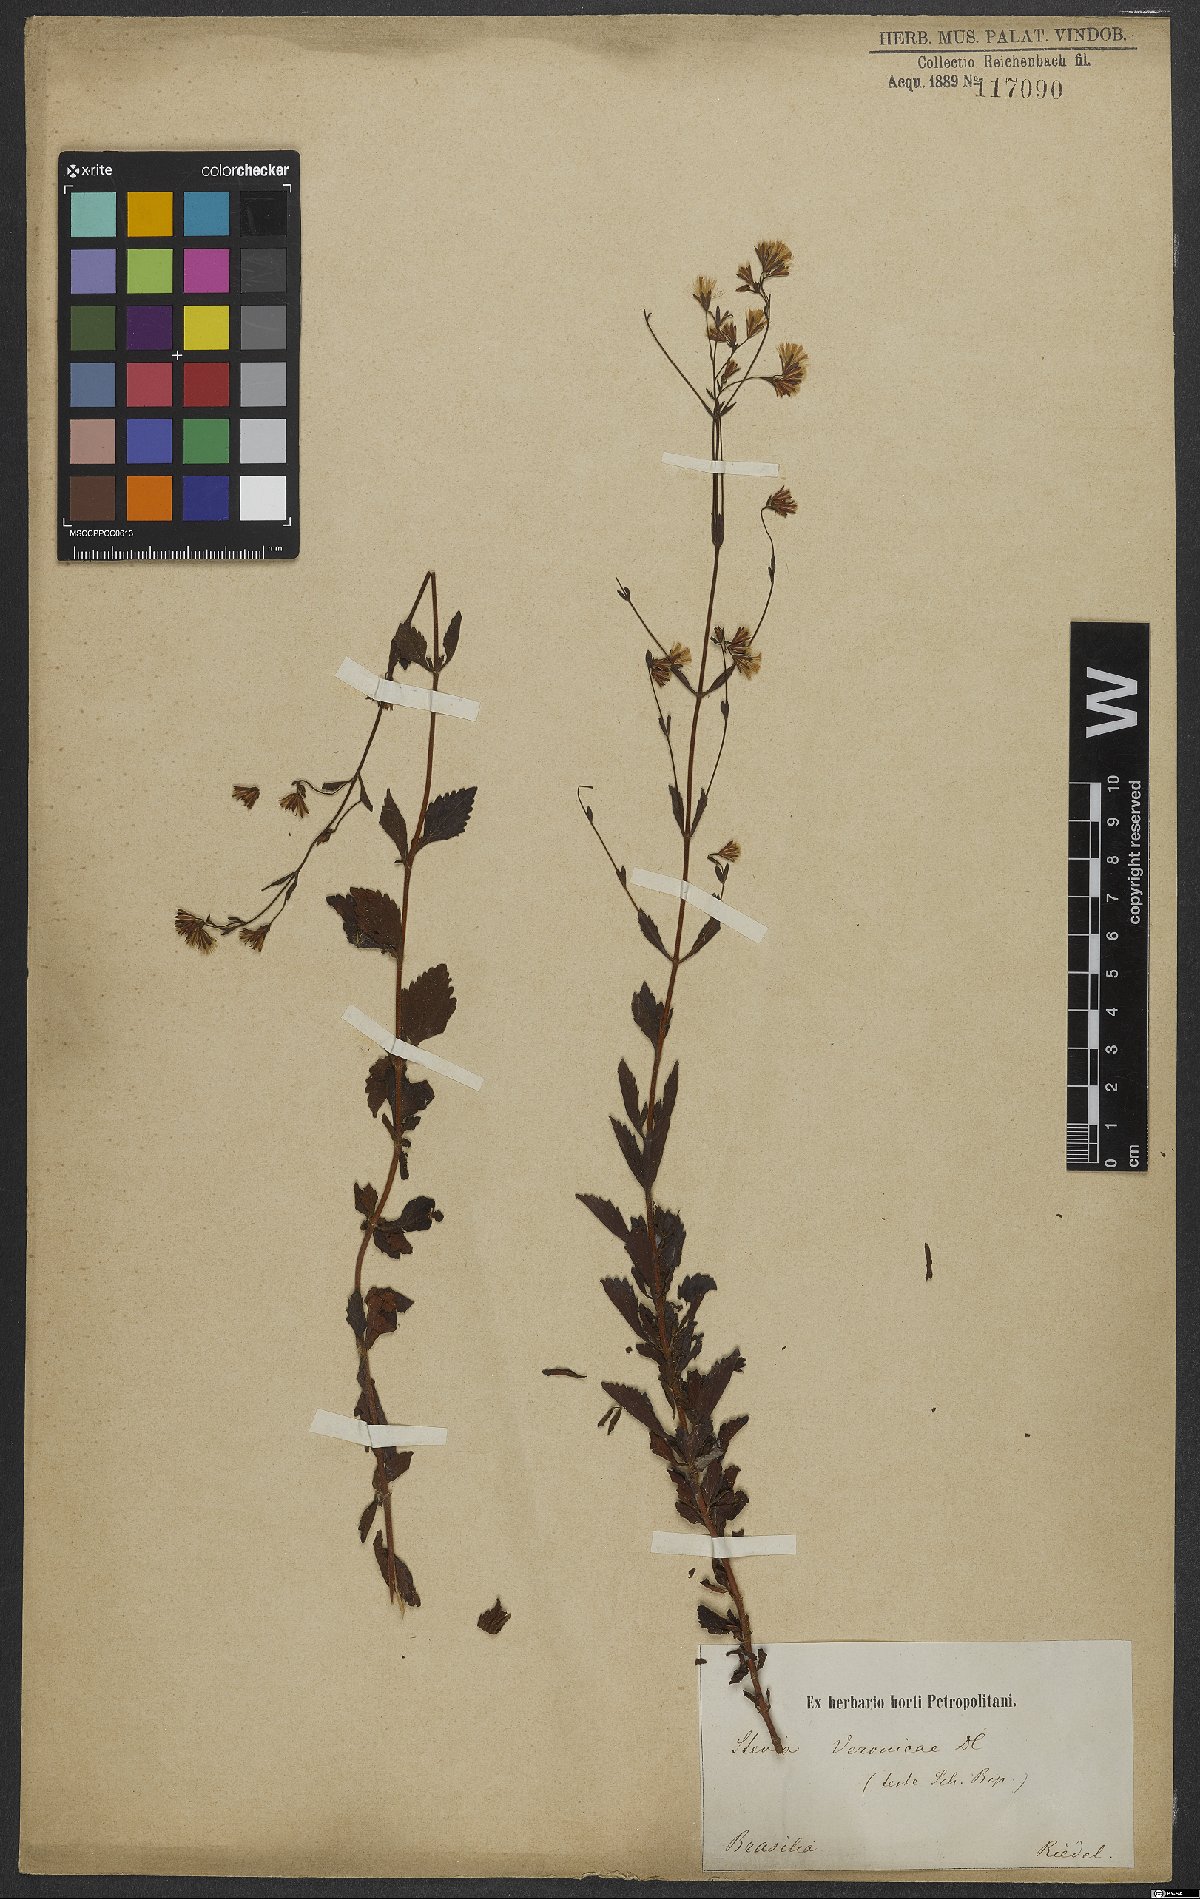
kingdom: Plantae
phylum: Tracheophyta
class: Magnoliopsida
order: Asterales
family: Asteraceae
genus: Stevia
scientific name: Stevia veronicae
